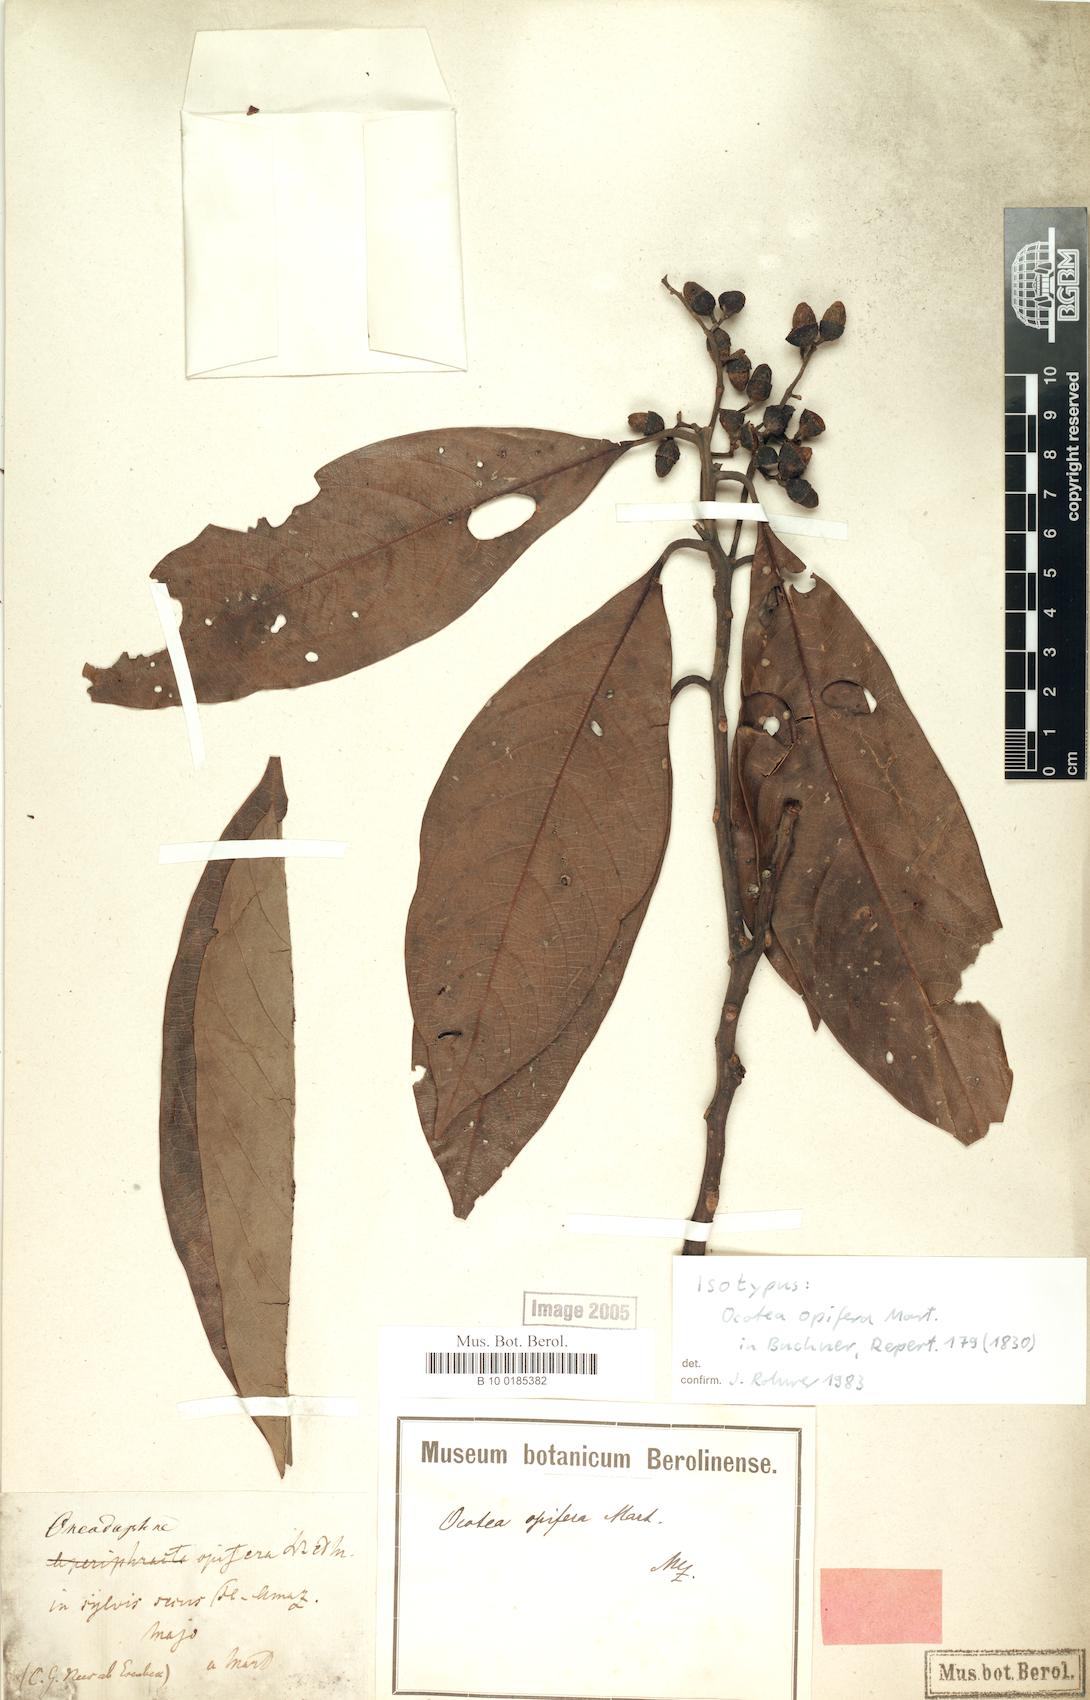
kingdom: Plantae
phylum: Tracheophyta
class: Magnoliopsida
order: Laurales
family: Lauraceae
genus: Mespilodaphne
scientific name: Mespilodaphne opifera
